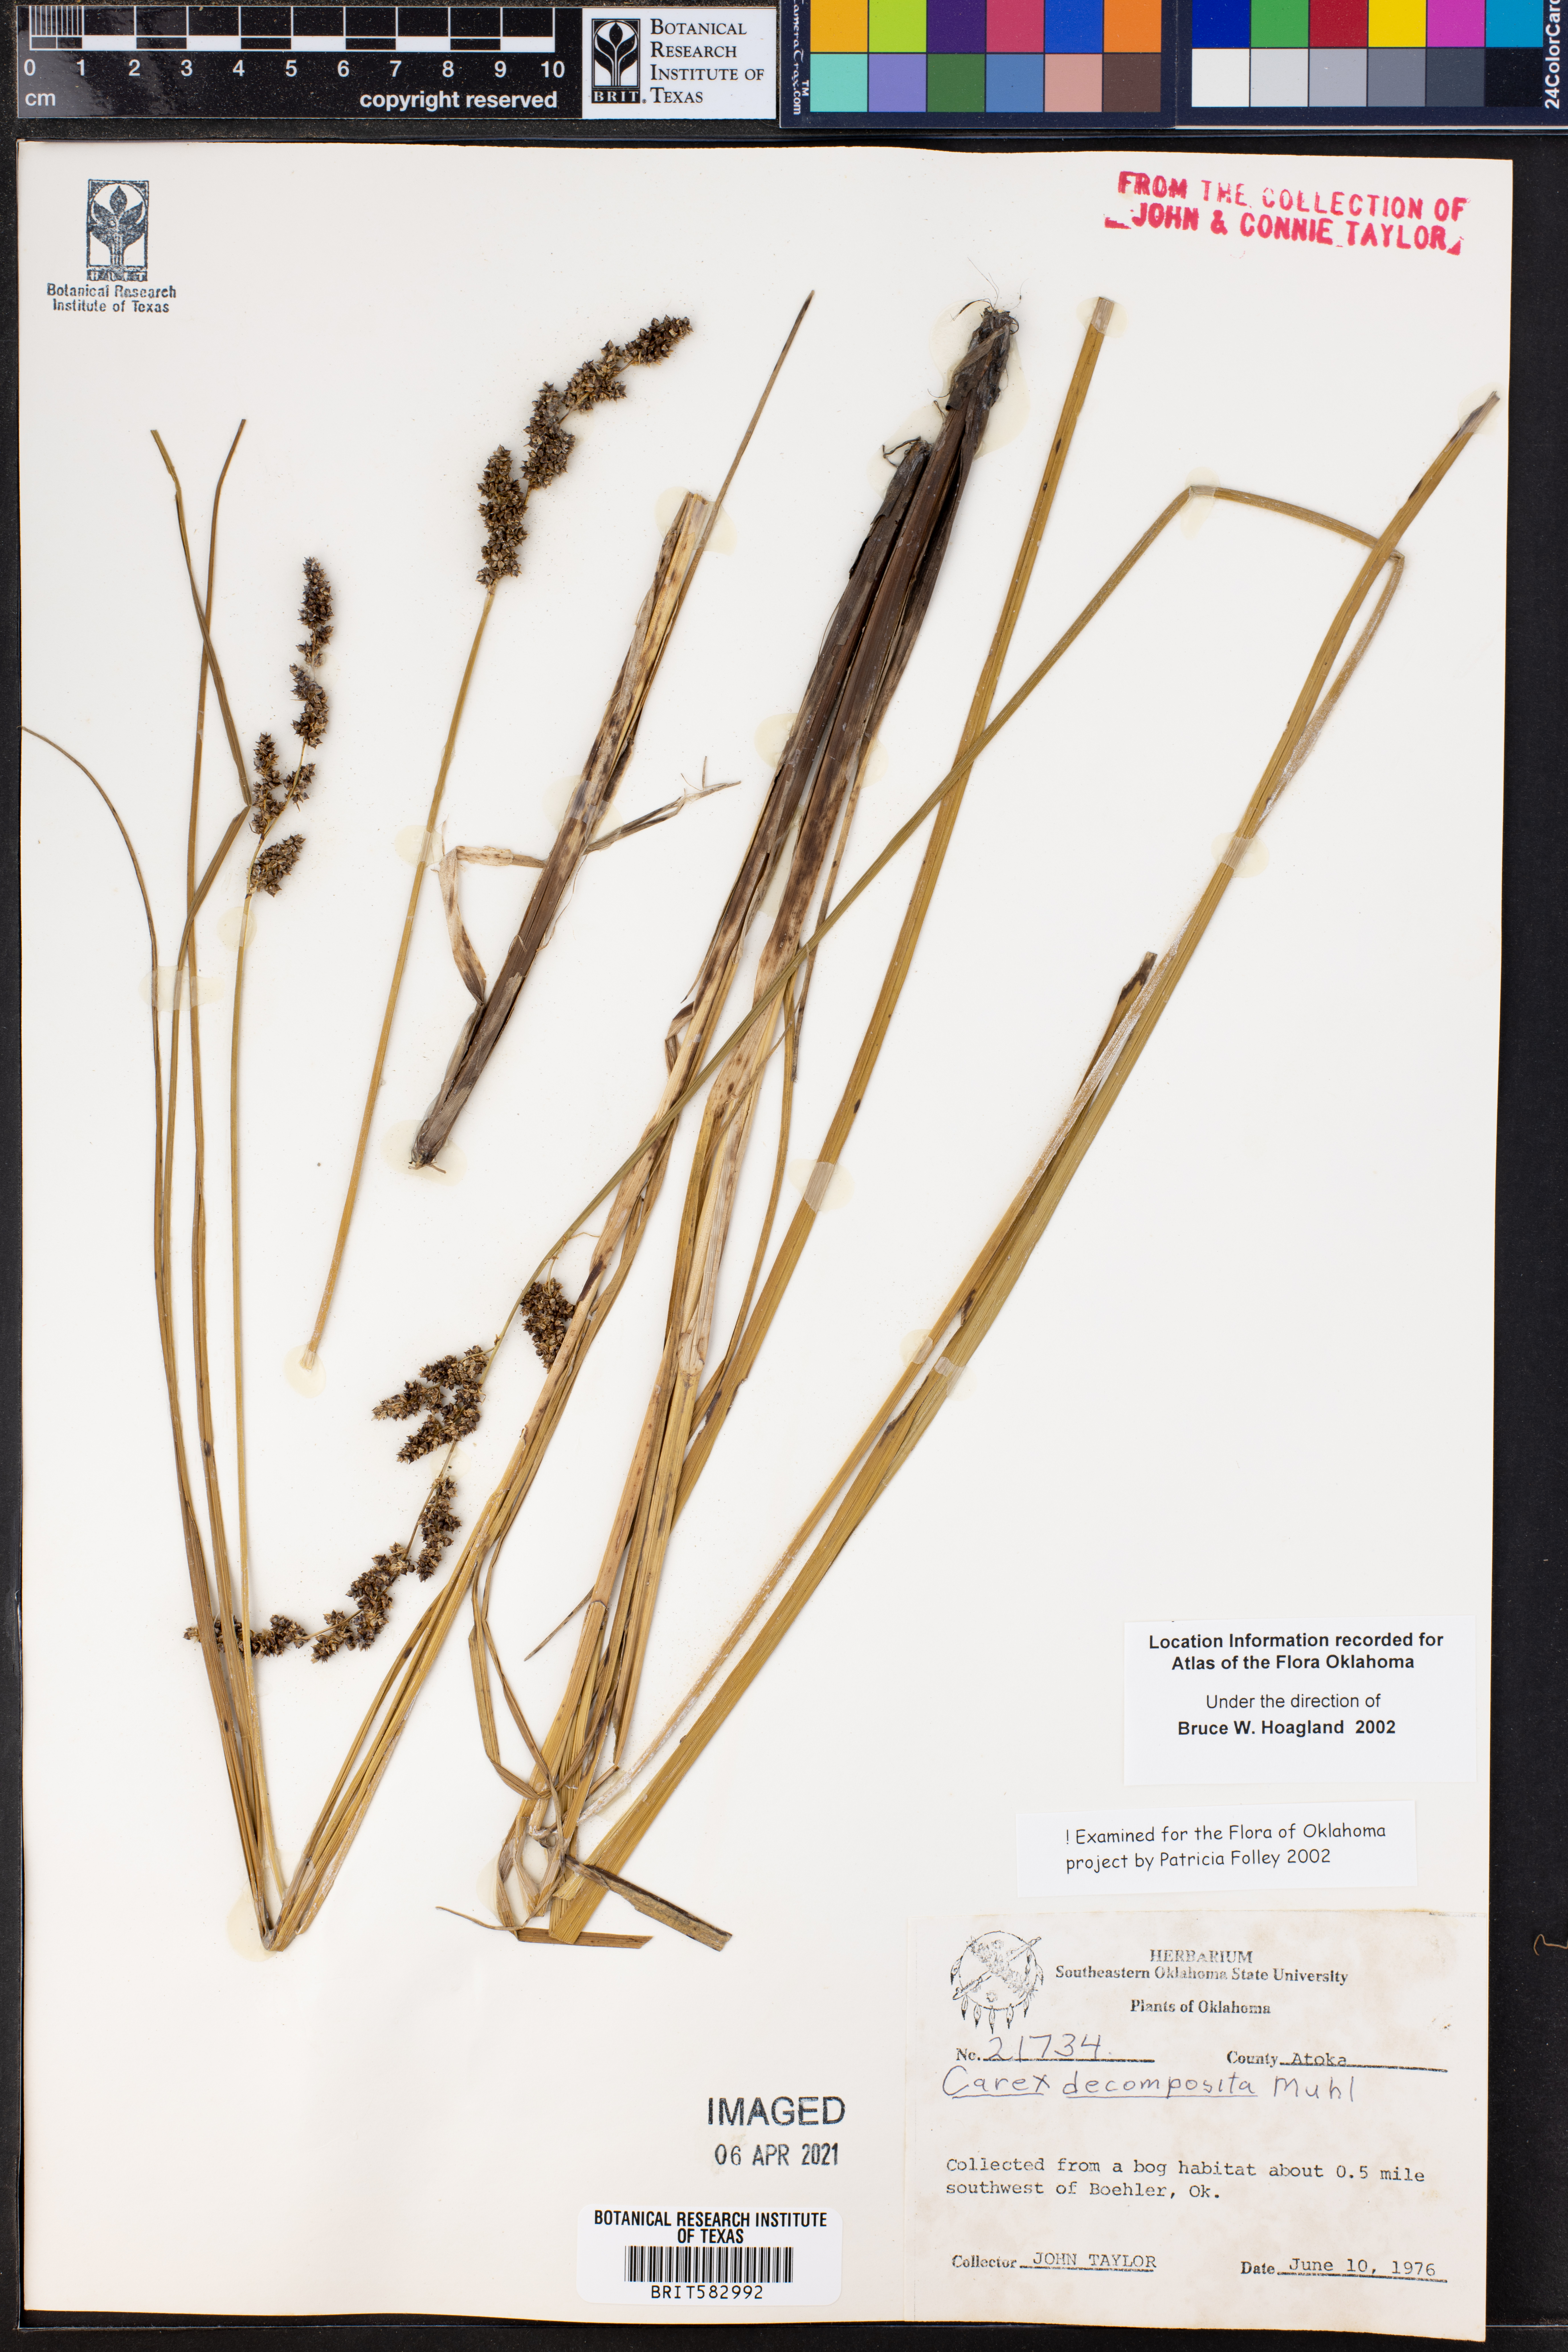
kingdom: Plantae
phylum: Tracheophyta
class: Liliopsida
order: Poales
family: Cyperaceae
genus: Carex
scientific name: Carex decomposita
